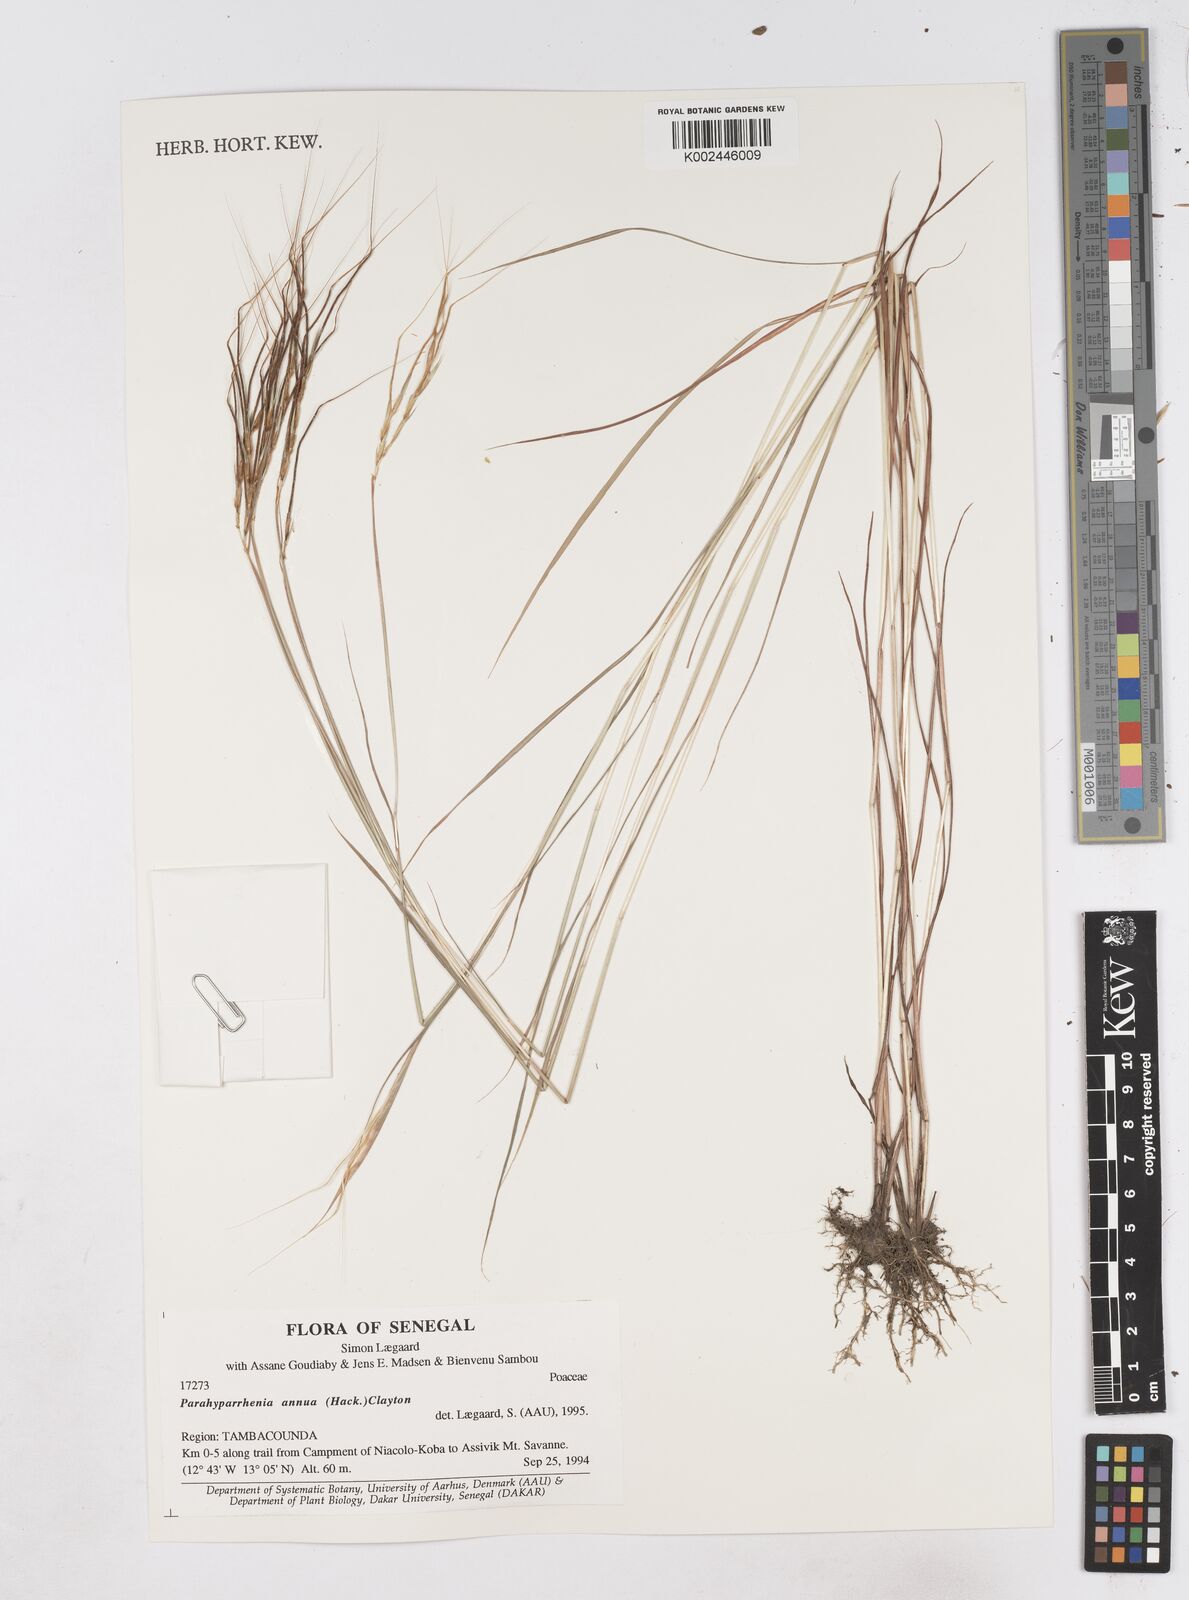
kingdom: Plantae
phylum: Tracheophyta
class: Liliopsida
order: Poales
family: Poaceae
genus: Parahyparrhenia
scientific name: Parahyparrhenia annua
